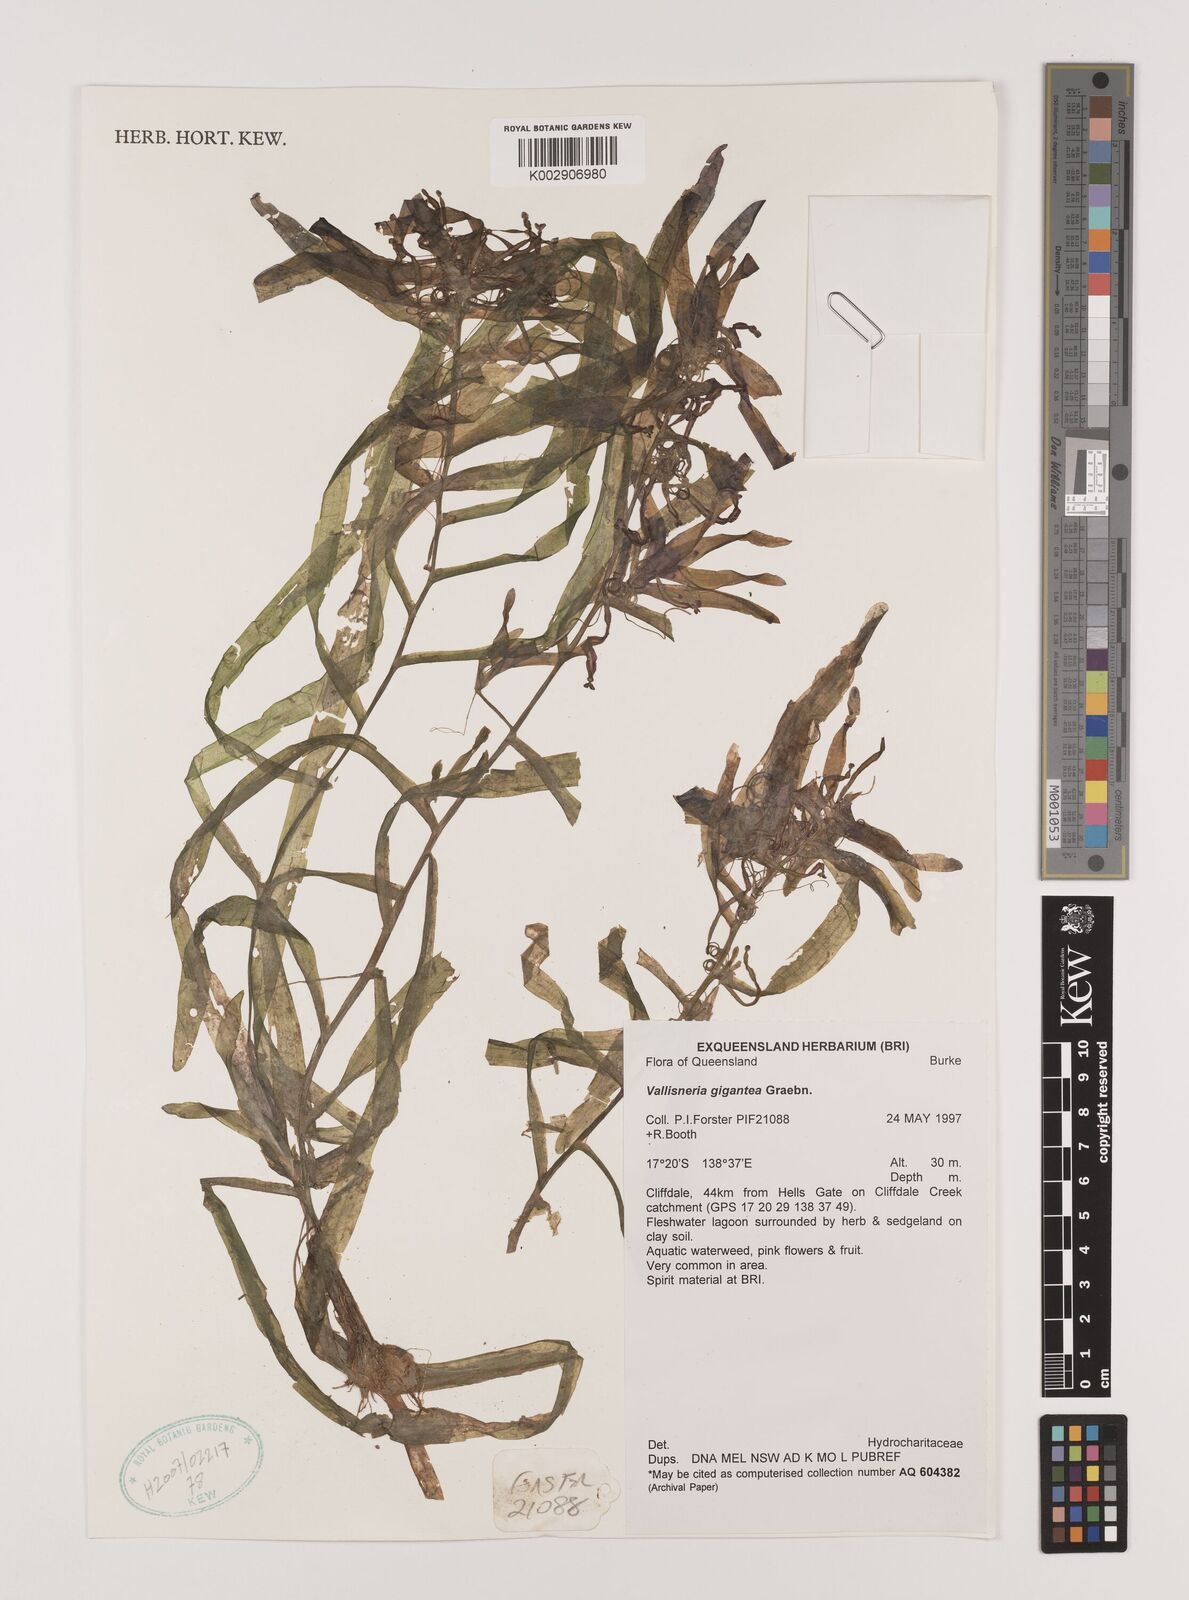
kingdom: Plantae
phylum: Tracheophyta
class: Liliopsida
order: Alismatales
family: Hydrocharitaceae
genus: Vallisneria
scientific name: Vallisneria nana
